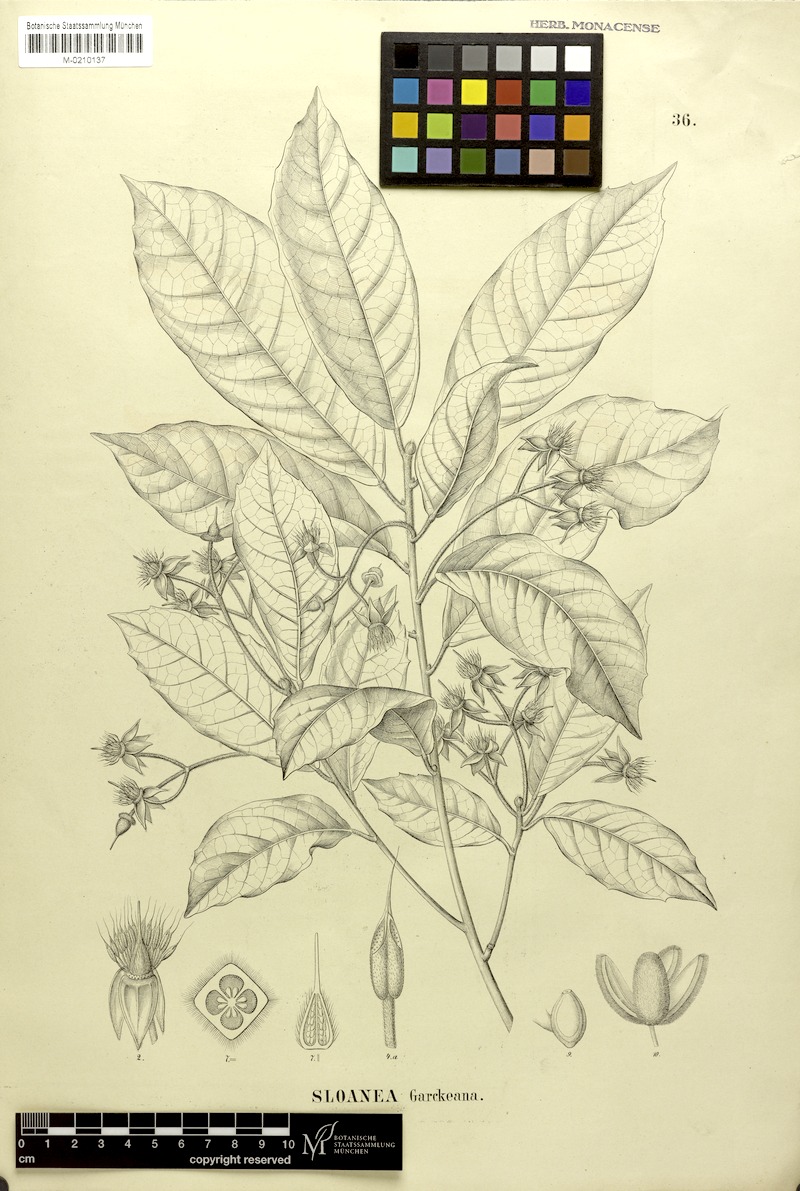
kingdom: Plantae
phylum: Tracheophyta
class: Magnoliopsida
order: Oxalidales
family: Elaeocarpaceae
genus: Sloanea
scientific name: Sloanea garckeana
